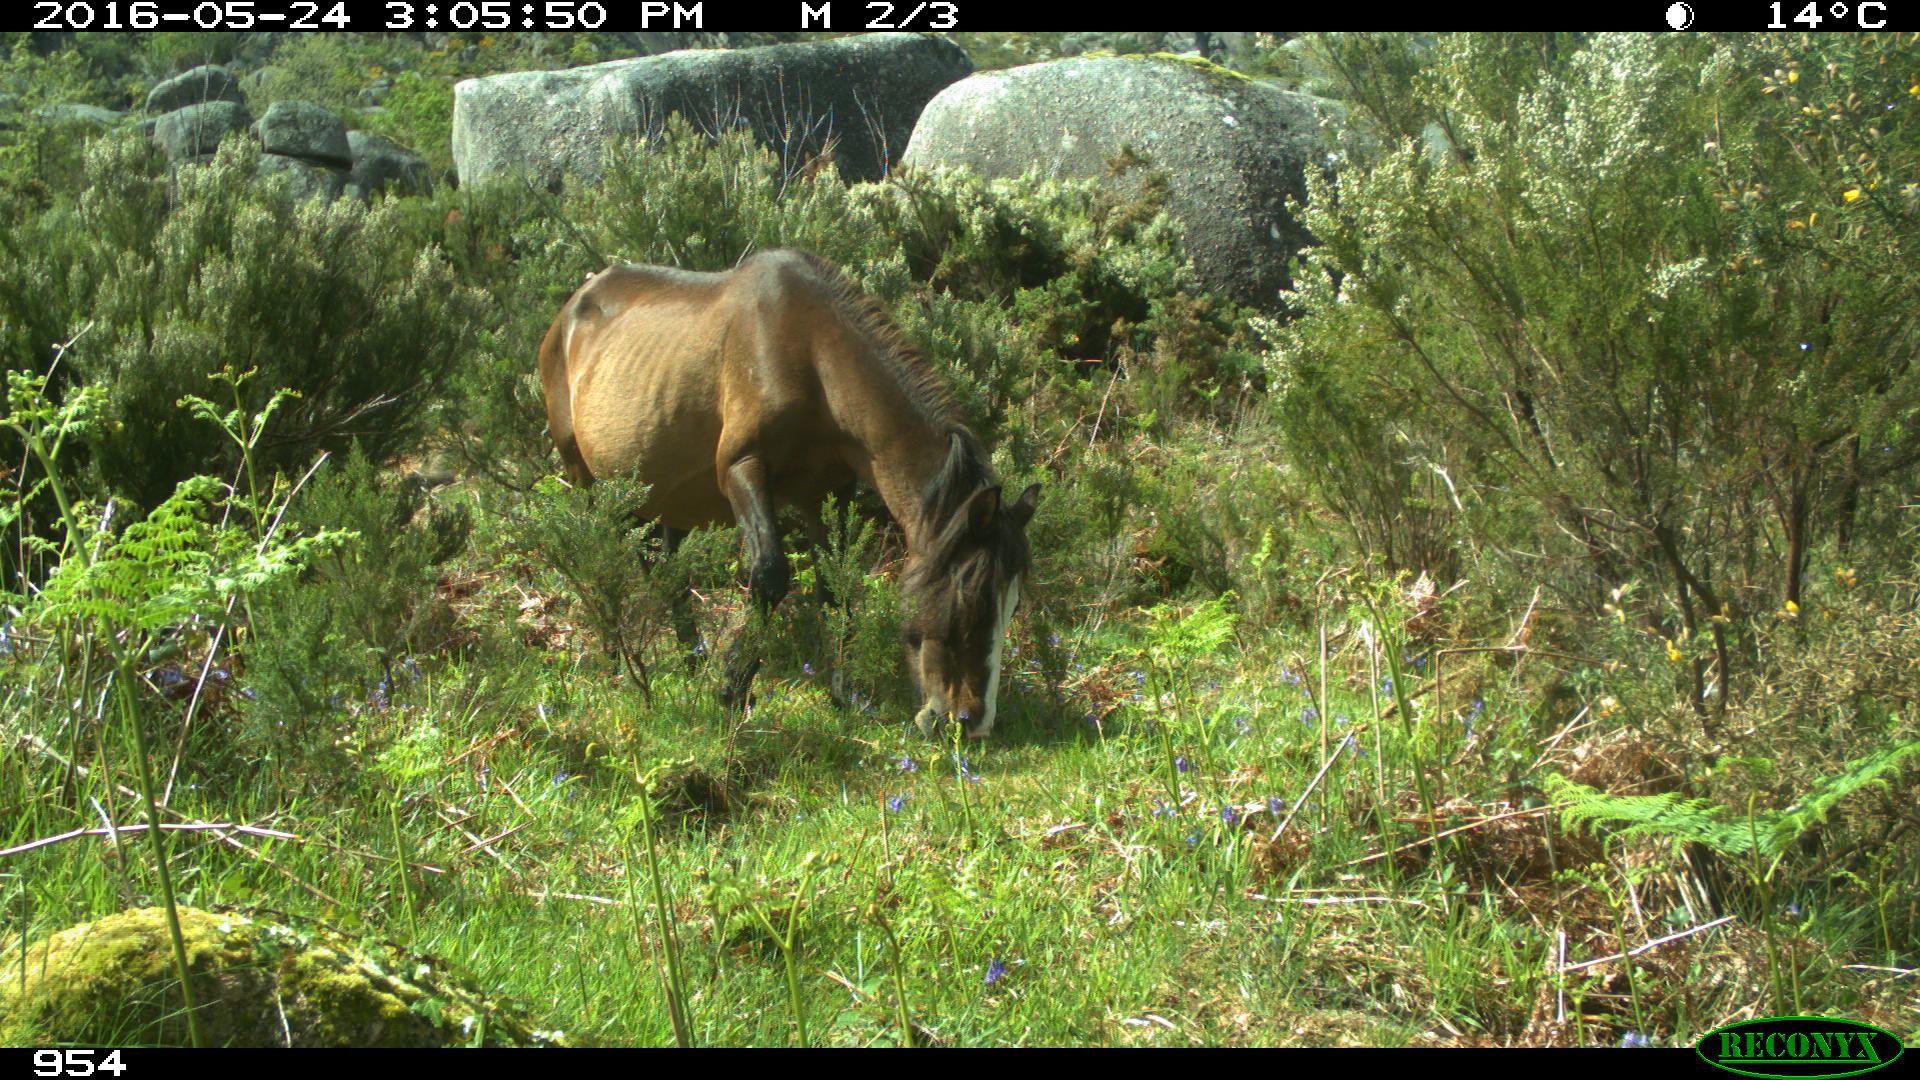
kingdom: Animalia
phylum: Chordata
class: Mammalia
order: Perissodactyla
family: Equidae
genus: Equus
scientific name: Equus caballus
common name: Horse
